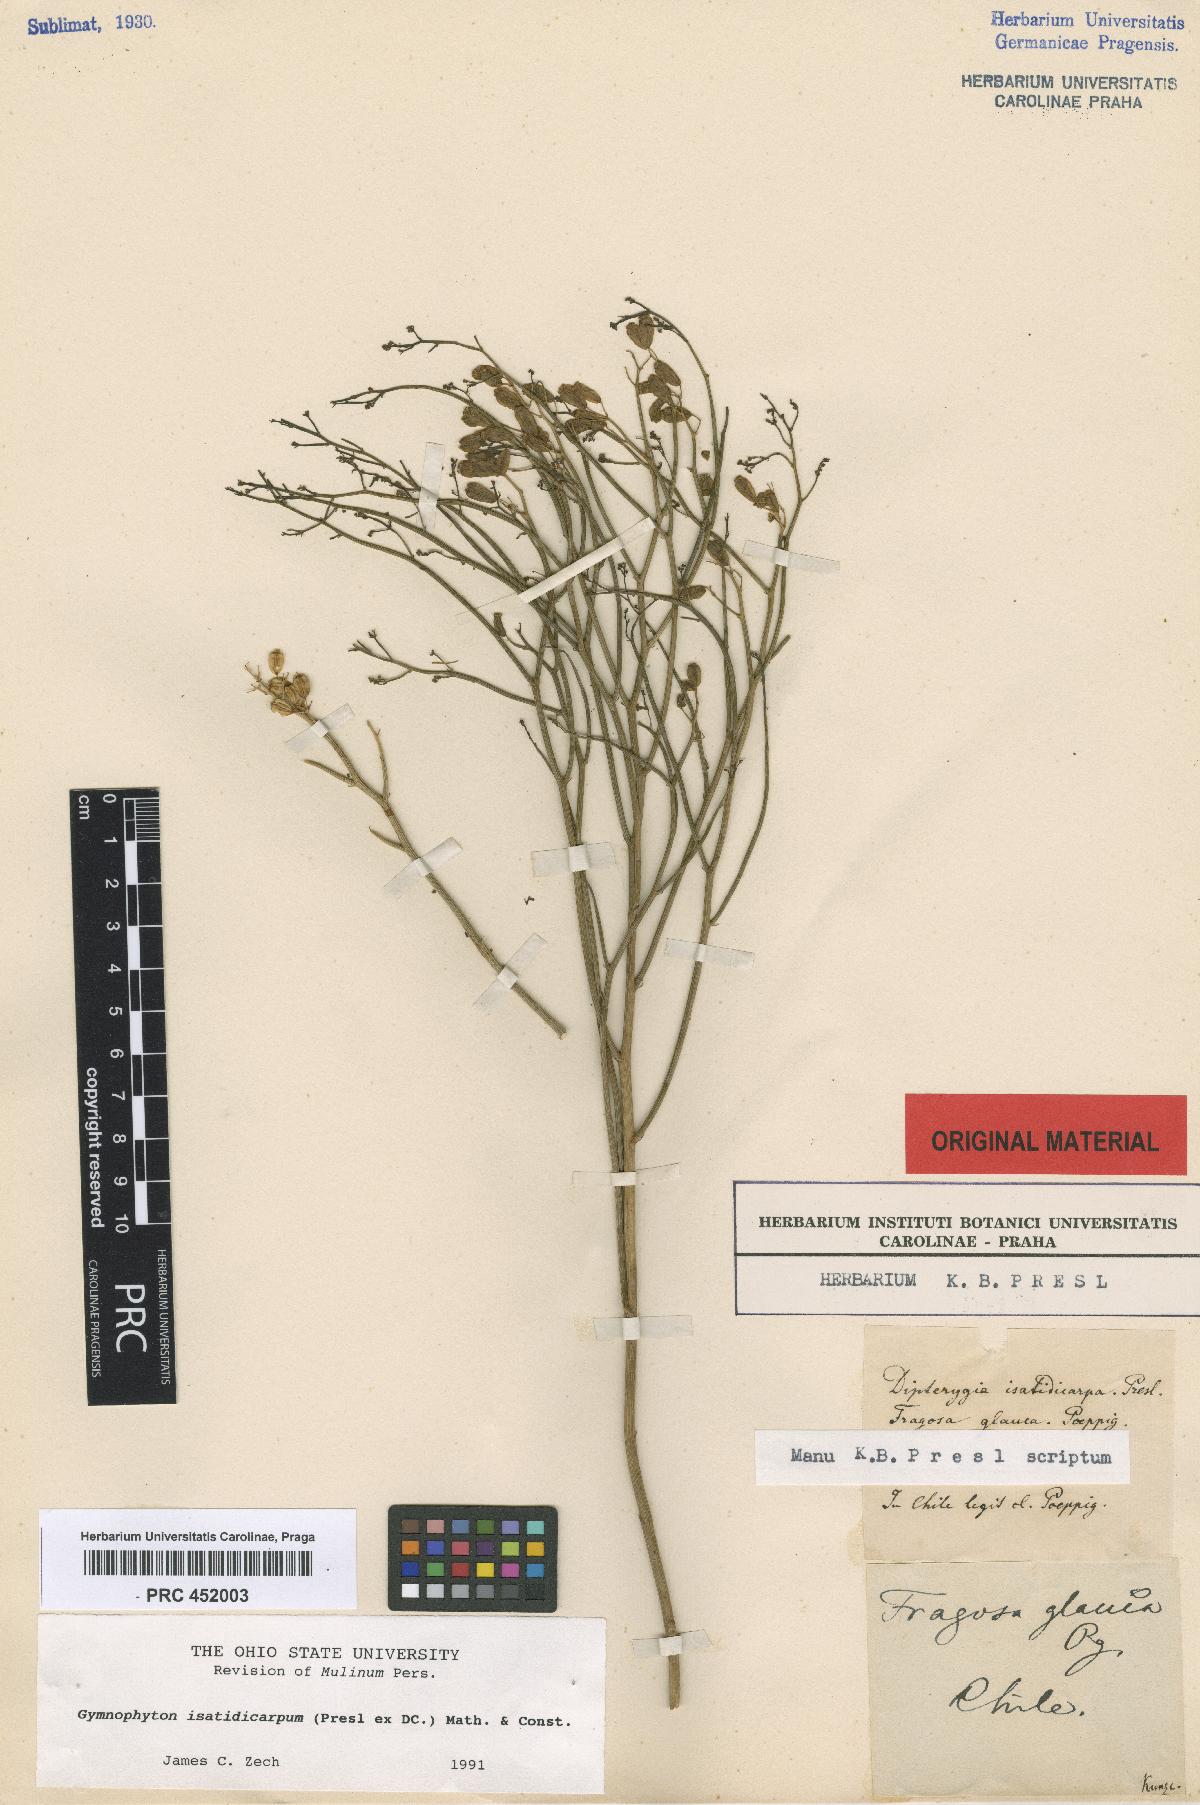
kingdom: Plantae
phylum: Tracheophyta
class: Magnoliopsida
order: Apiales
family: Apiaceae
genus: Gymnophyton
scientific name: Gymnophyton isatidicarpum
